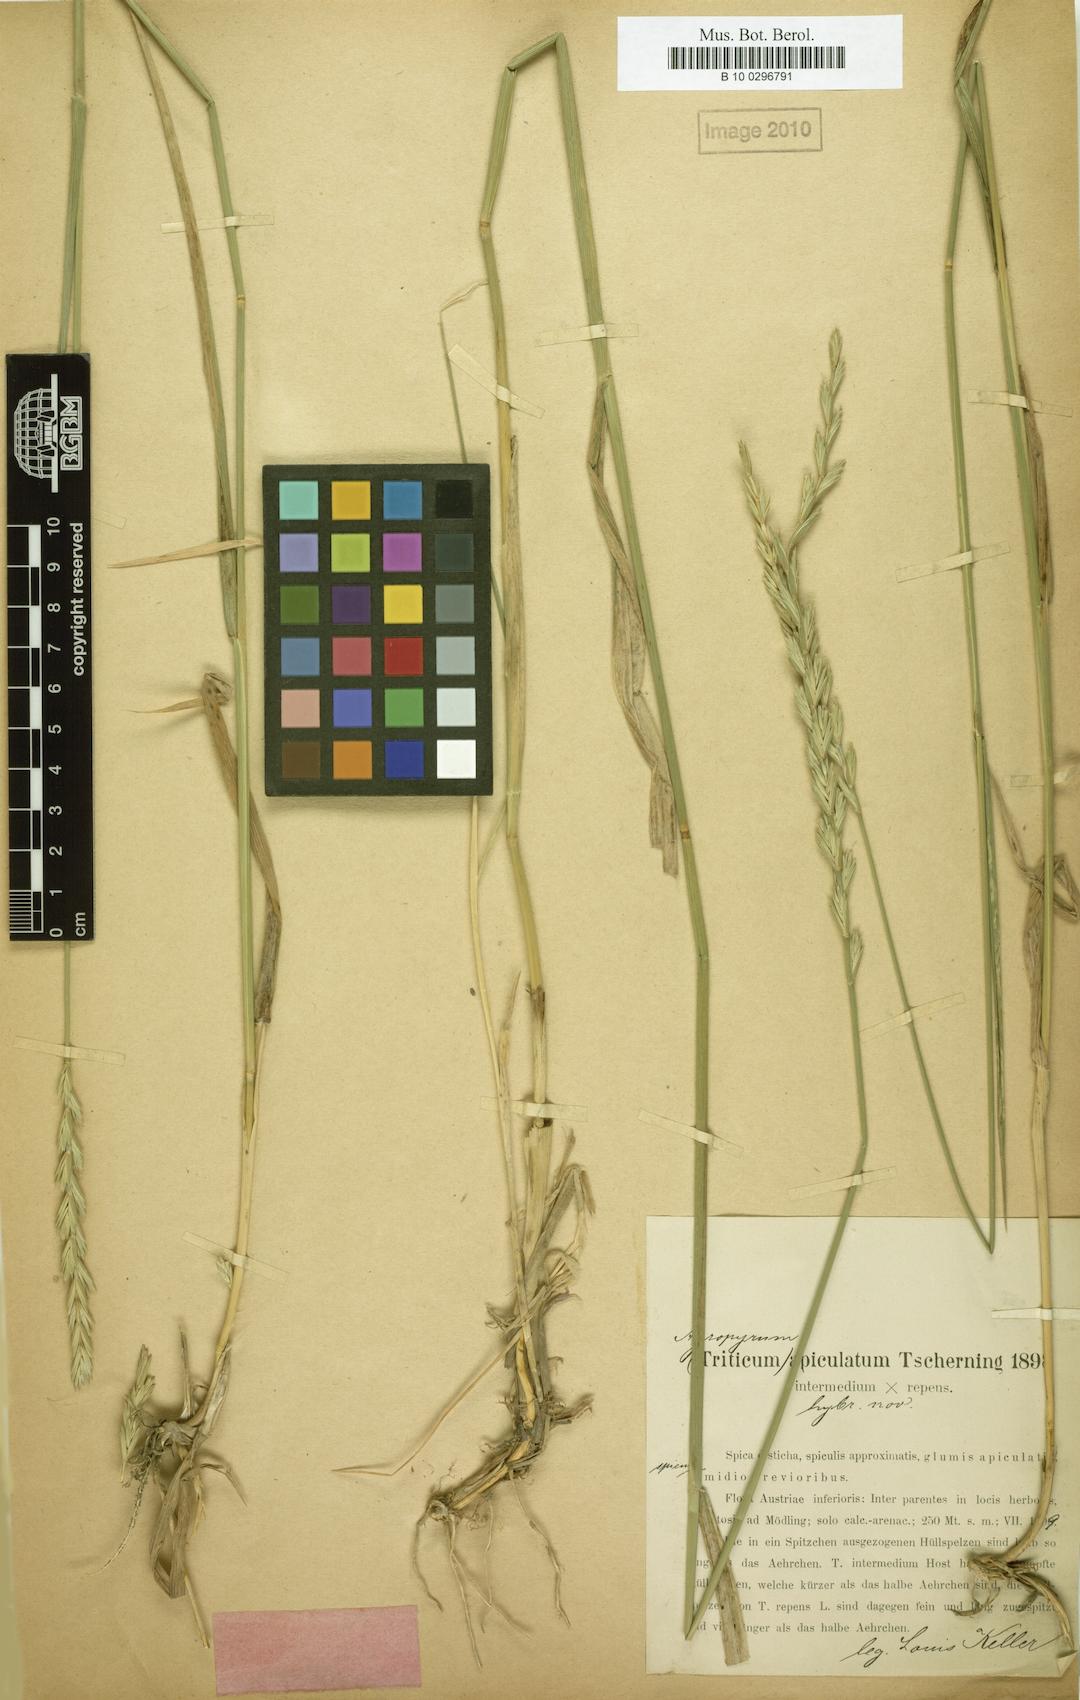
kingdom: Plantae
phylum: Tracheophyta
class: Liliopsida
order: Poales
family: Poaceae
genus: Elymus
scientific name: Elymus apiculatus
